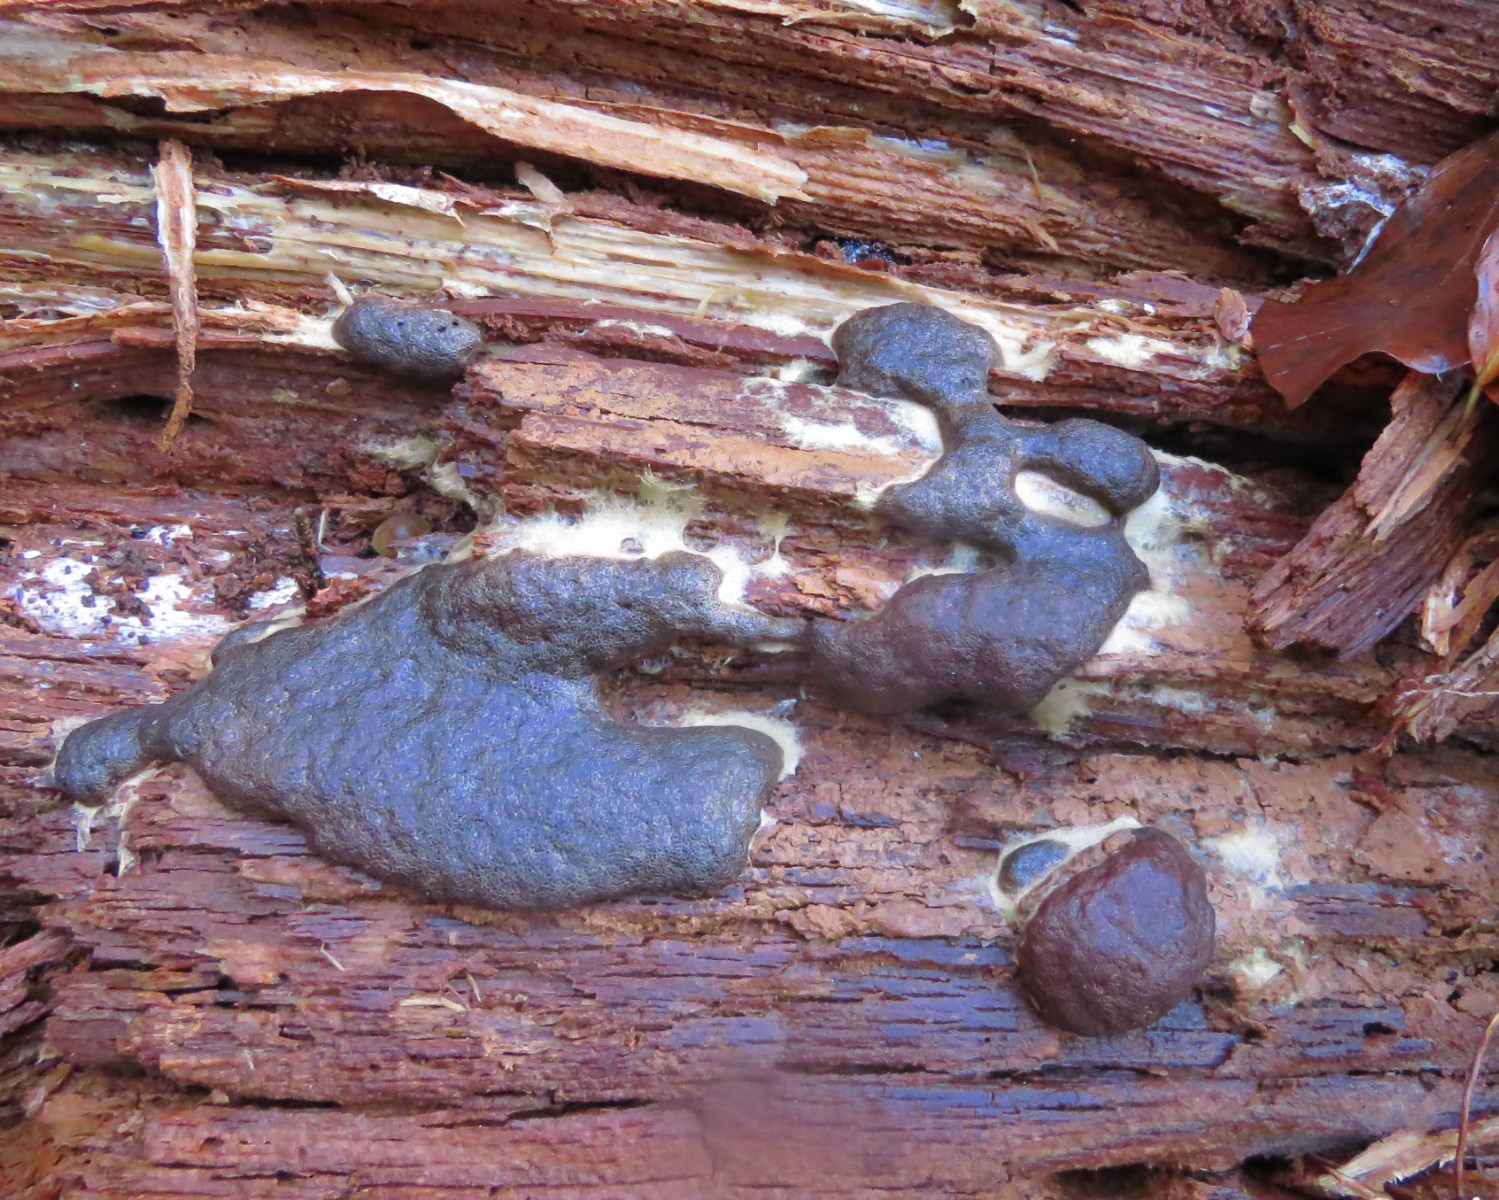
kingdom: Protozoa
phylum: Mycetozoa
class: Myxomycetes
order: Cribrariales
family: Tubiferaceae
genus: Thecotubifera
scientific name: Thecotubifera dictyoderma
